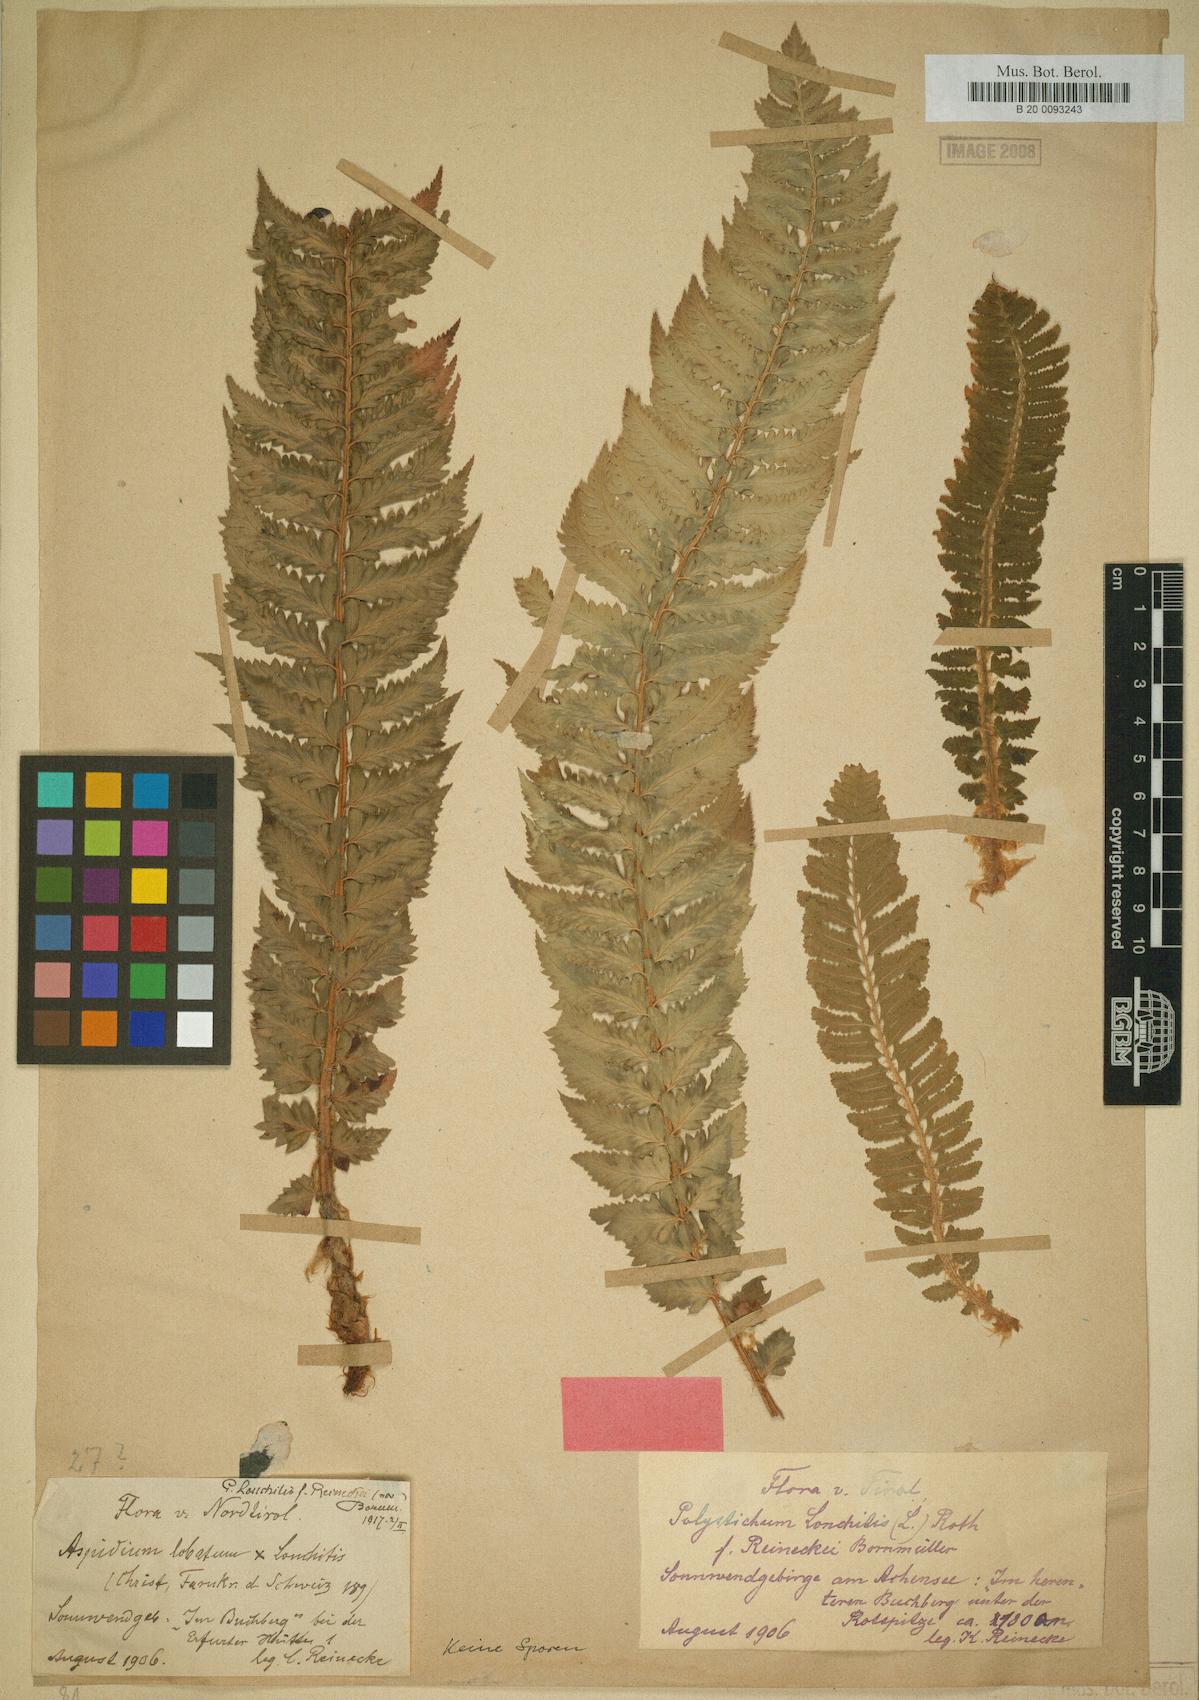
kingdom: Plantae
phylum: Tracheophyta
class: Polypodiopsida
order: Polypodiales
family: Dryopteridaceae
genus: Polystichum
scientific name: Polystichum lonchitis
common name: Holly fern
